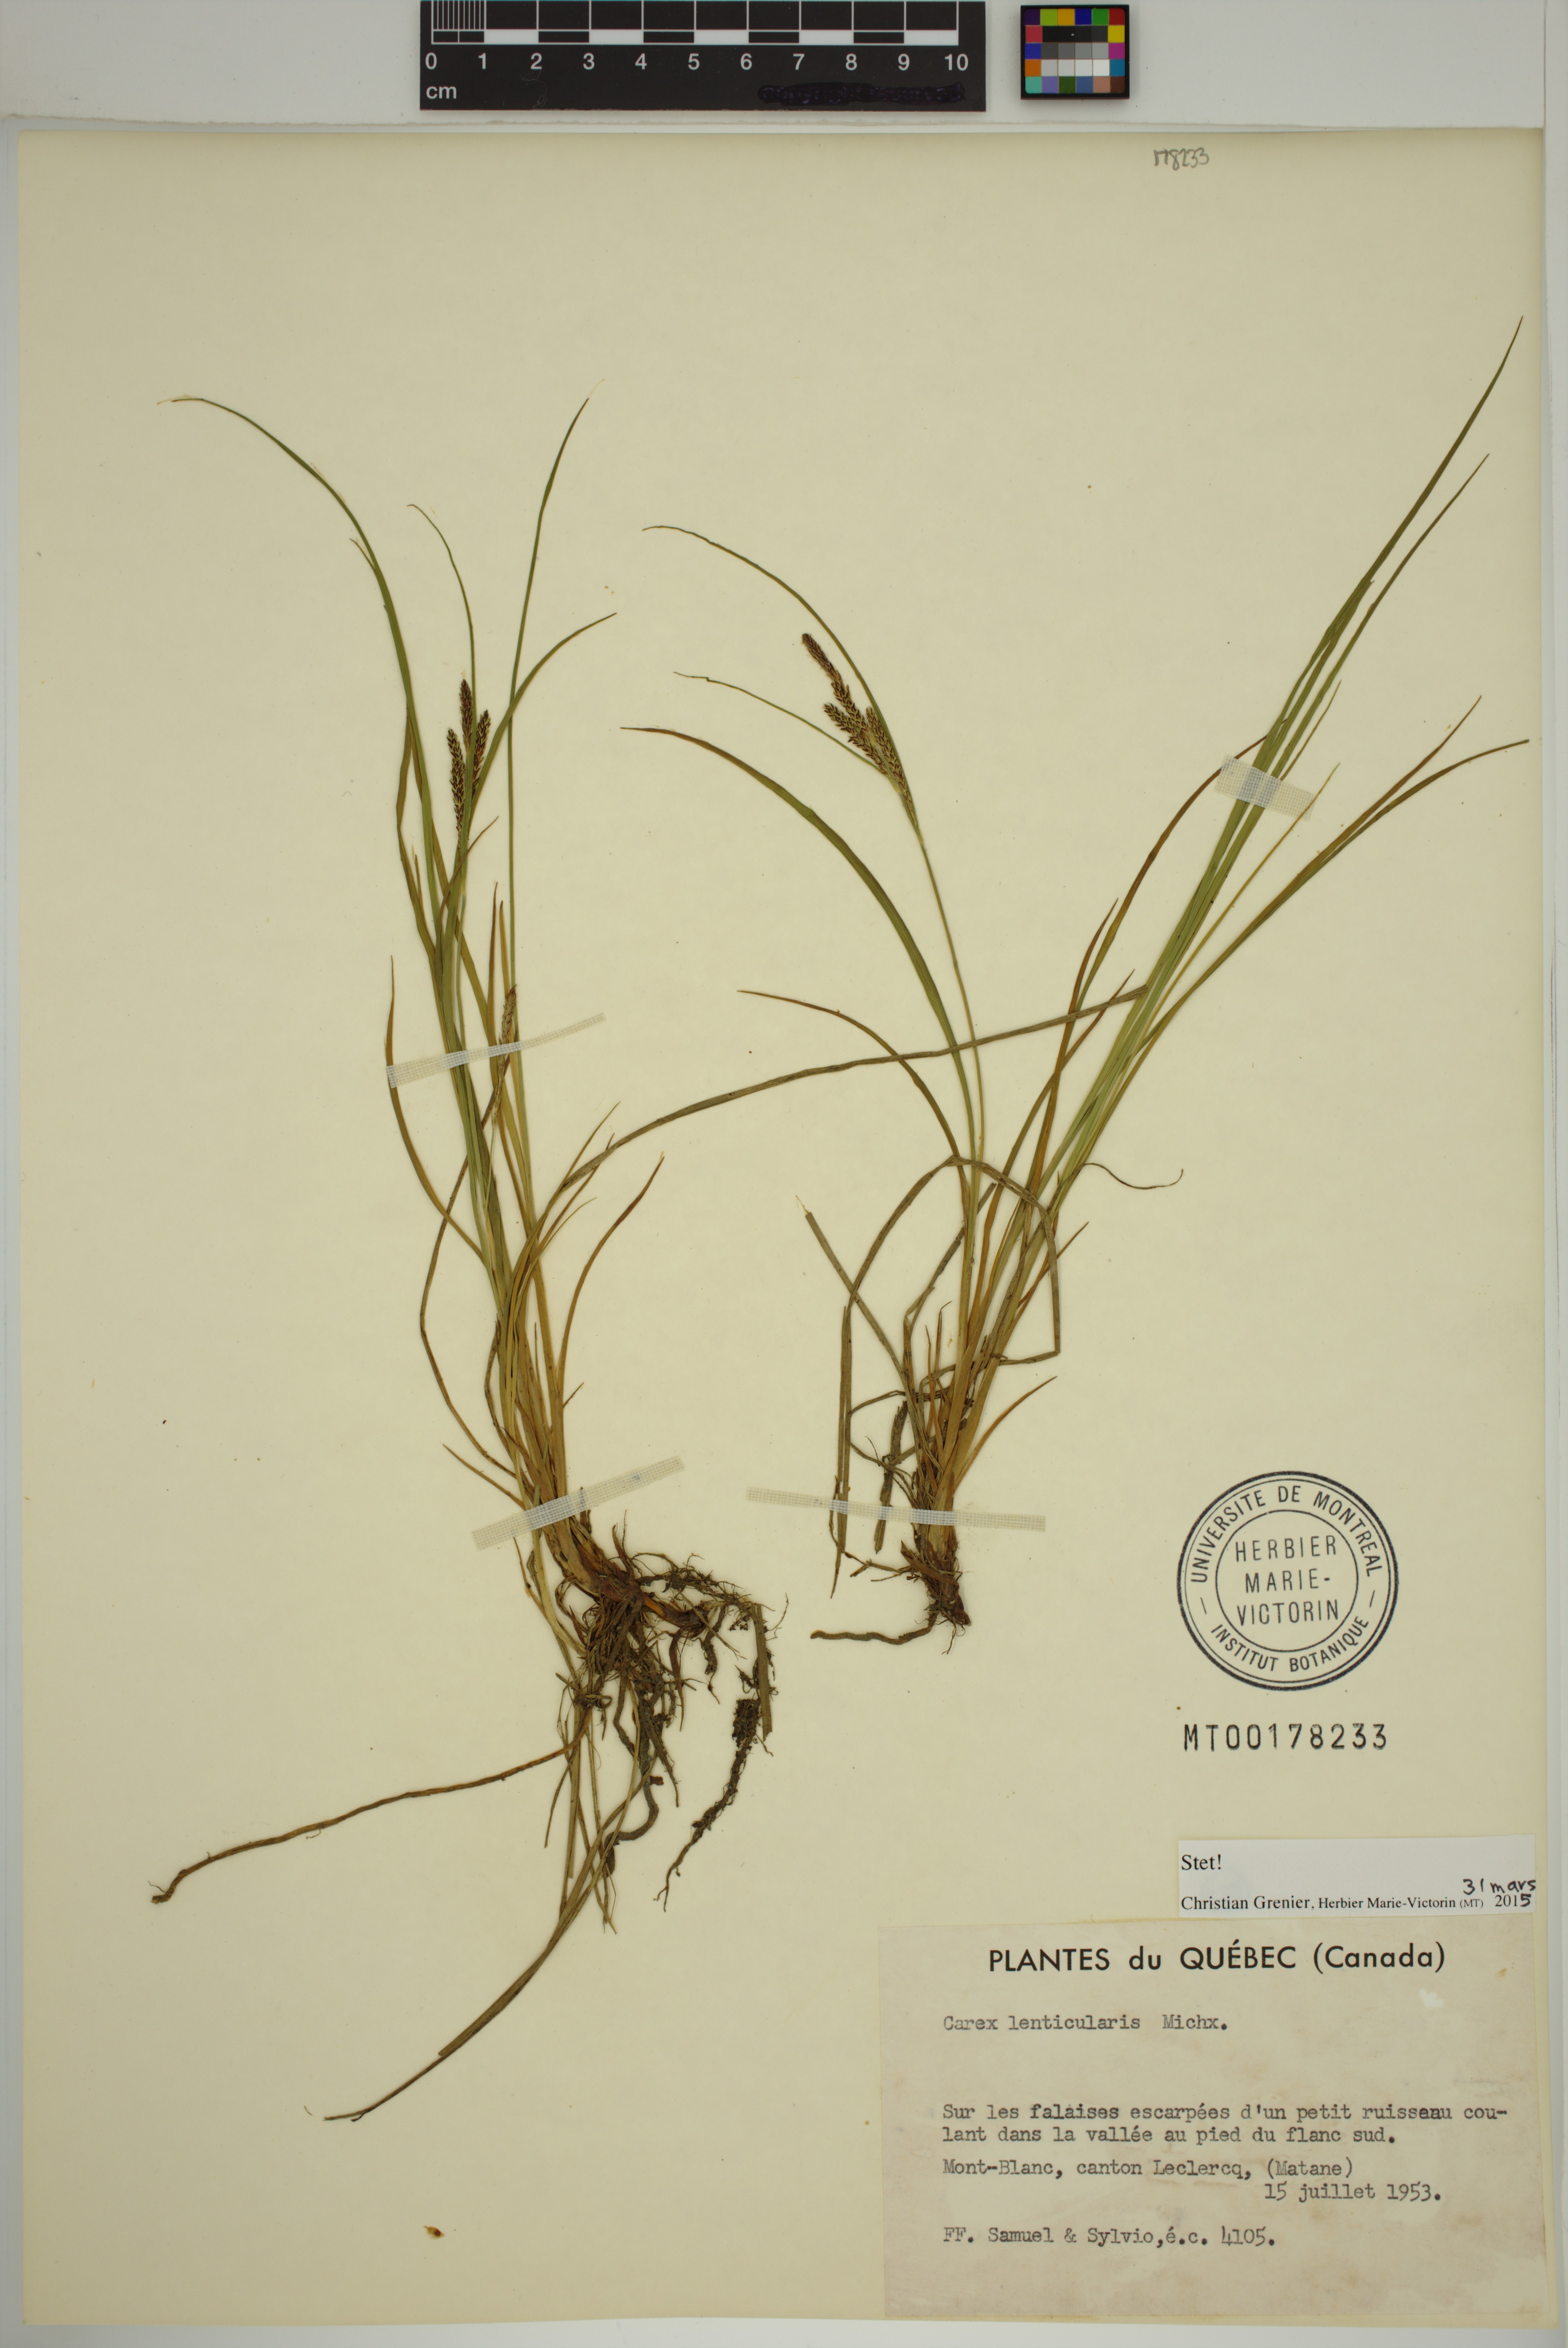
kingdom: Plantae
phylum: Tracheophyta
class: Liliopsida
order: Poales
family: Cyperaceae
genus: Carex
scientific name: Carex lenticularis
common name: Lakeshore sedge
